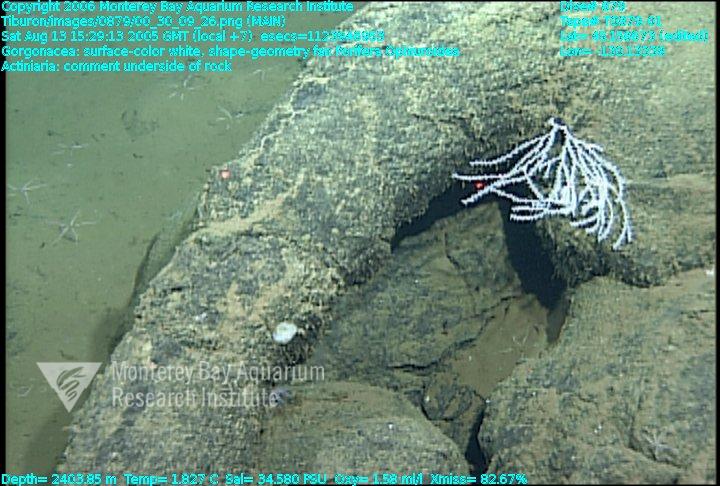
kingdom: Animalia
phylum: Porifera
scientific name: Porifera
